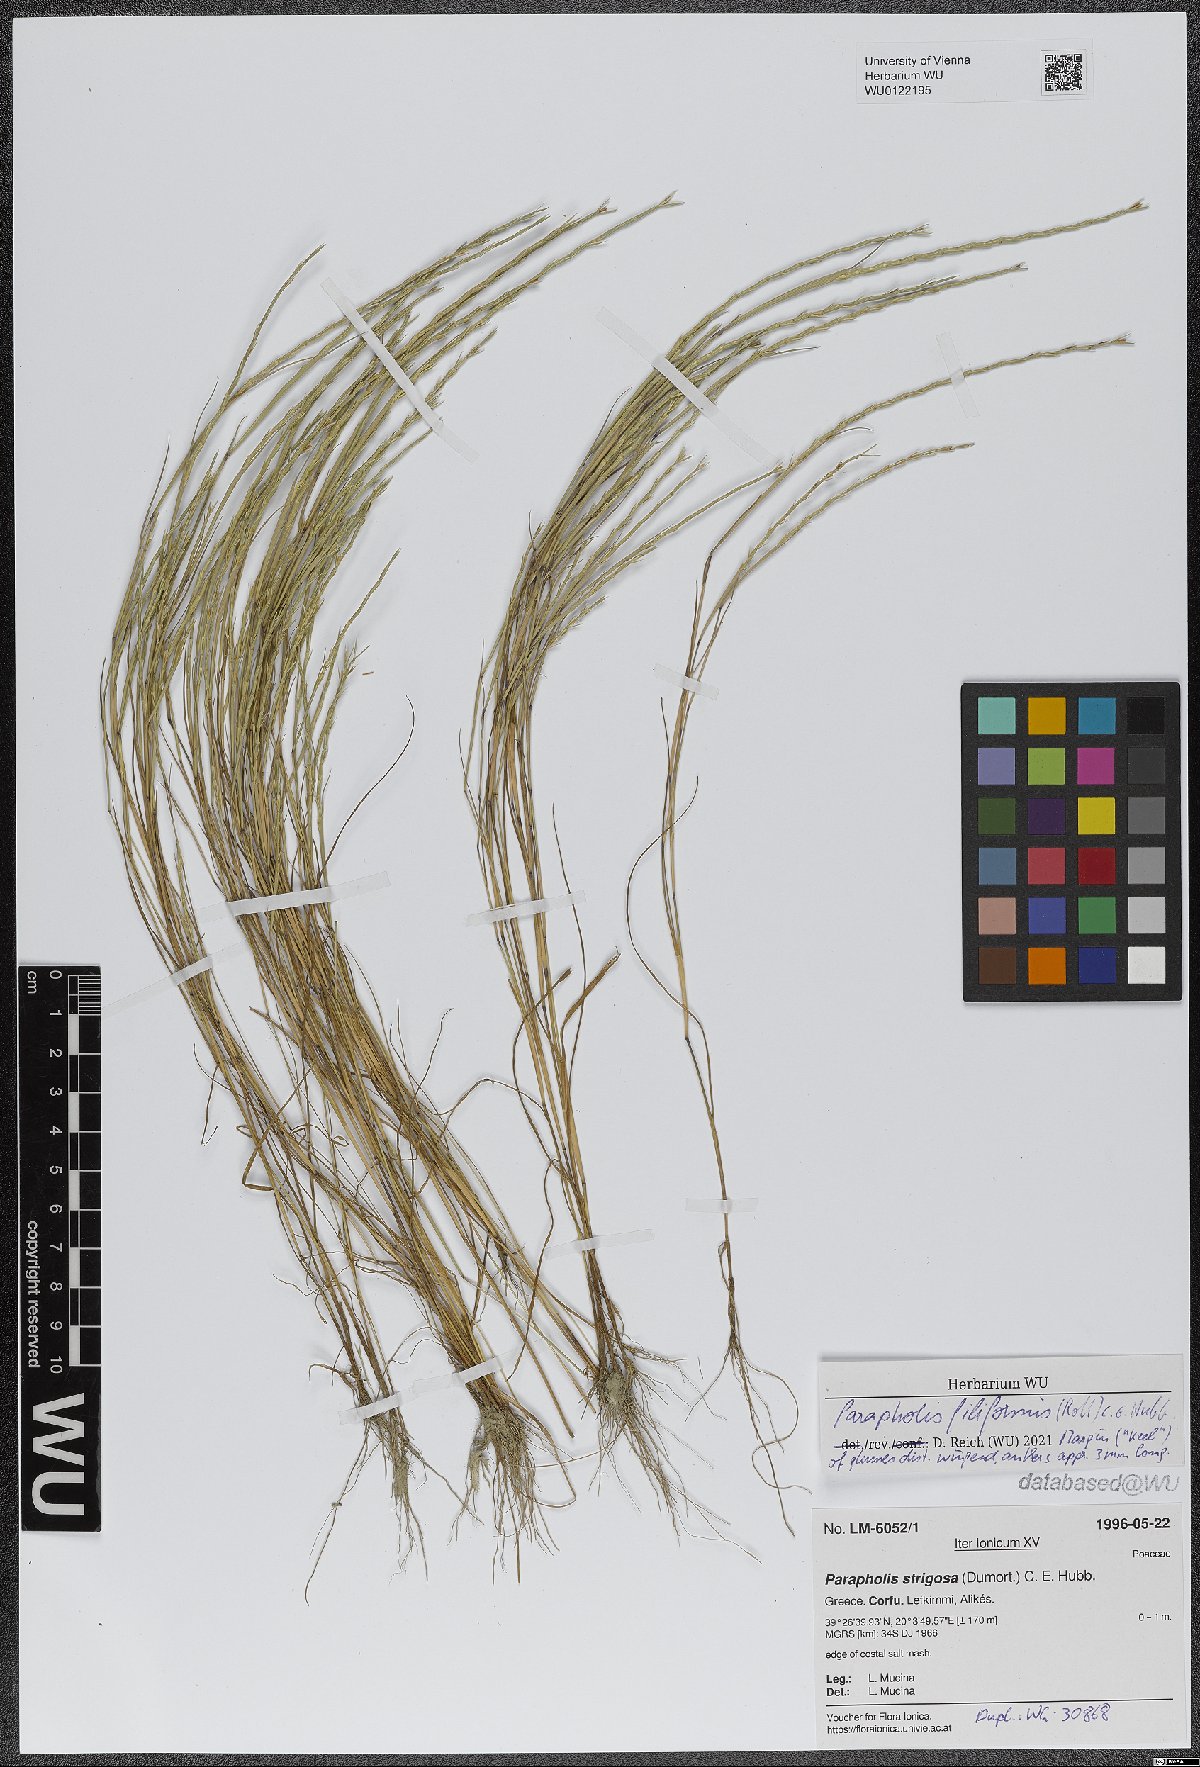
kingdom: Plantae
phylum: Tracheophyta
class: Liliopsida
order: Poales
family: Poaceae
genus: Parapholis
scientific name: Parapholis filiformis
